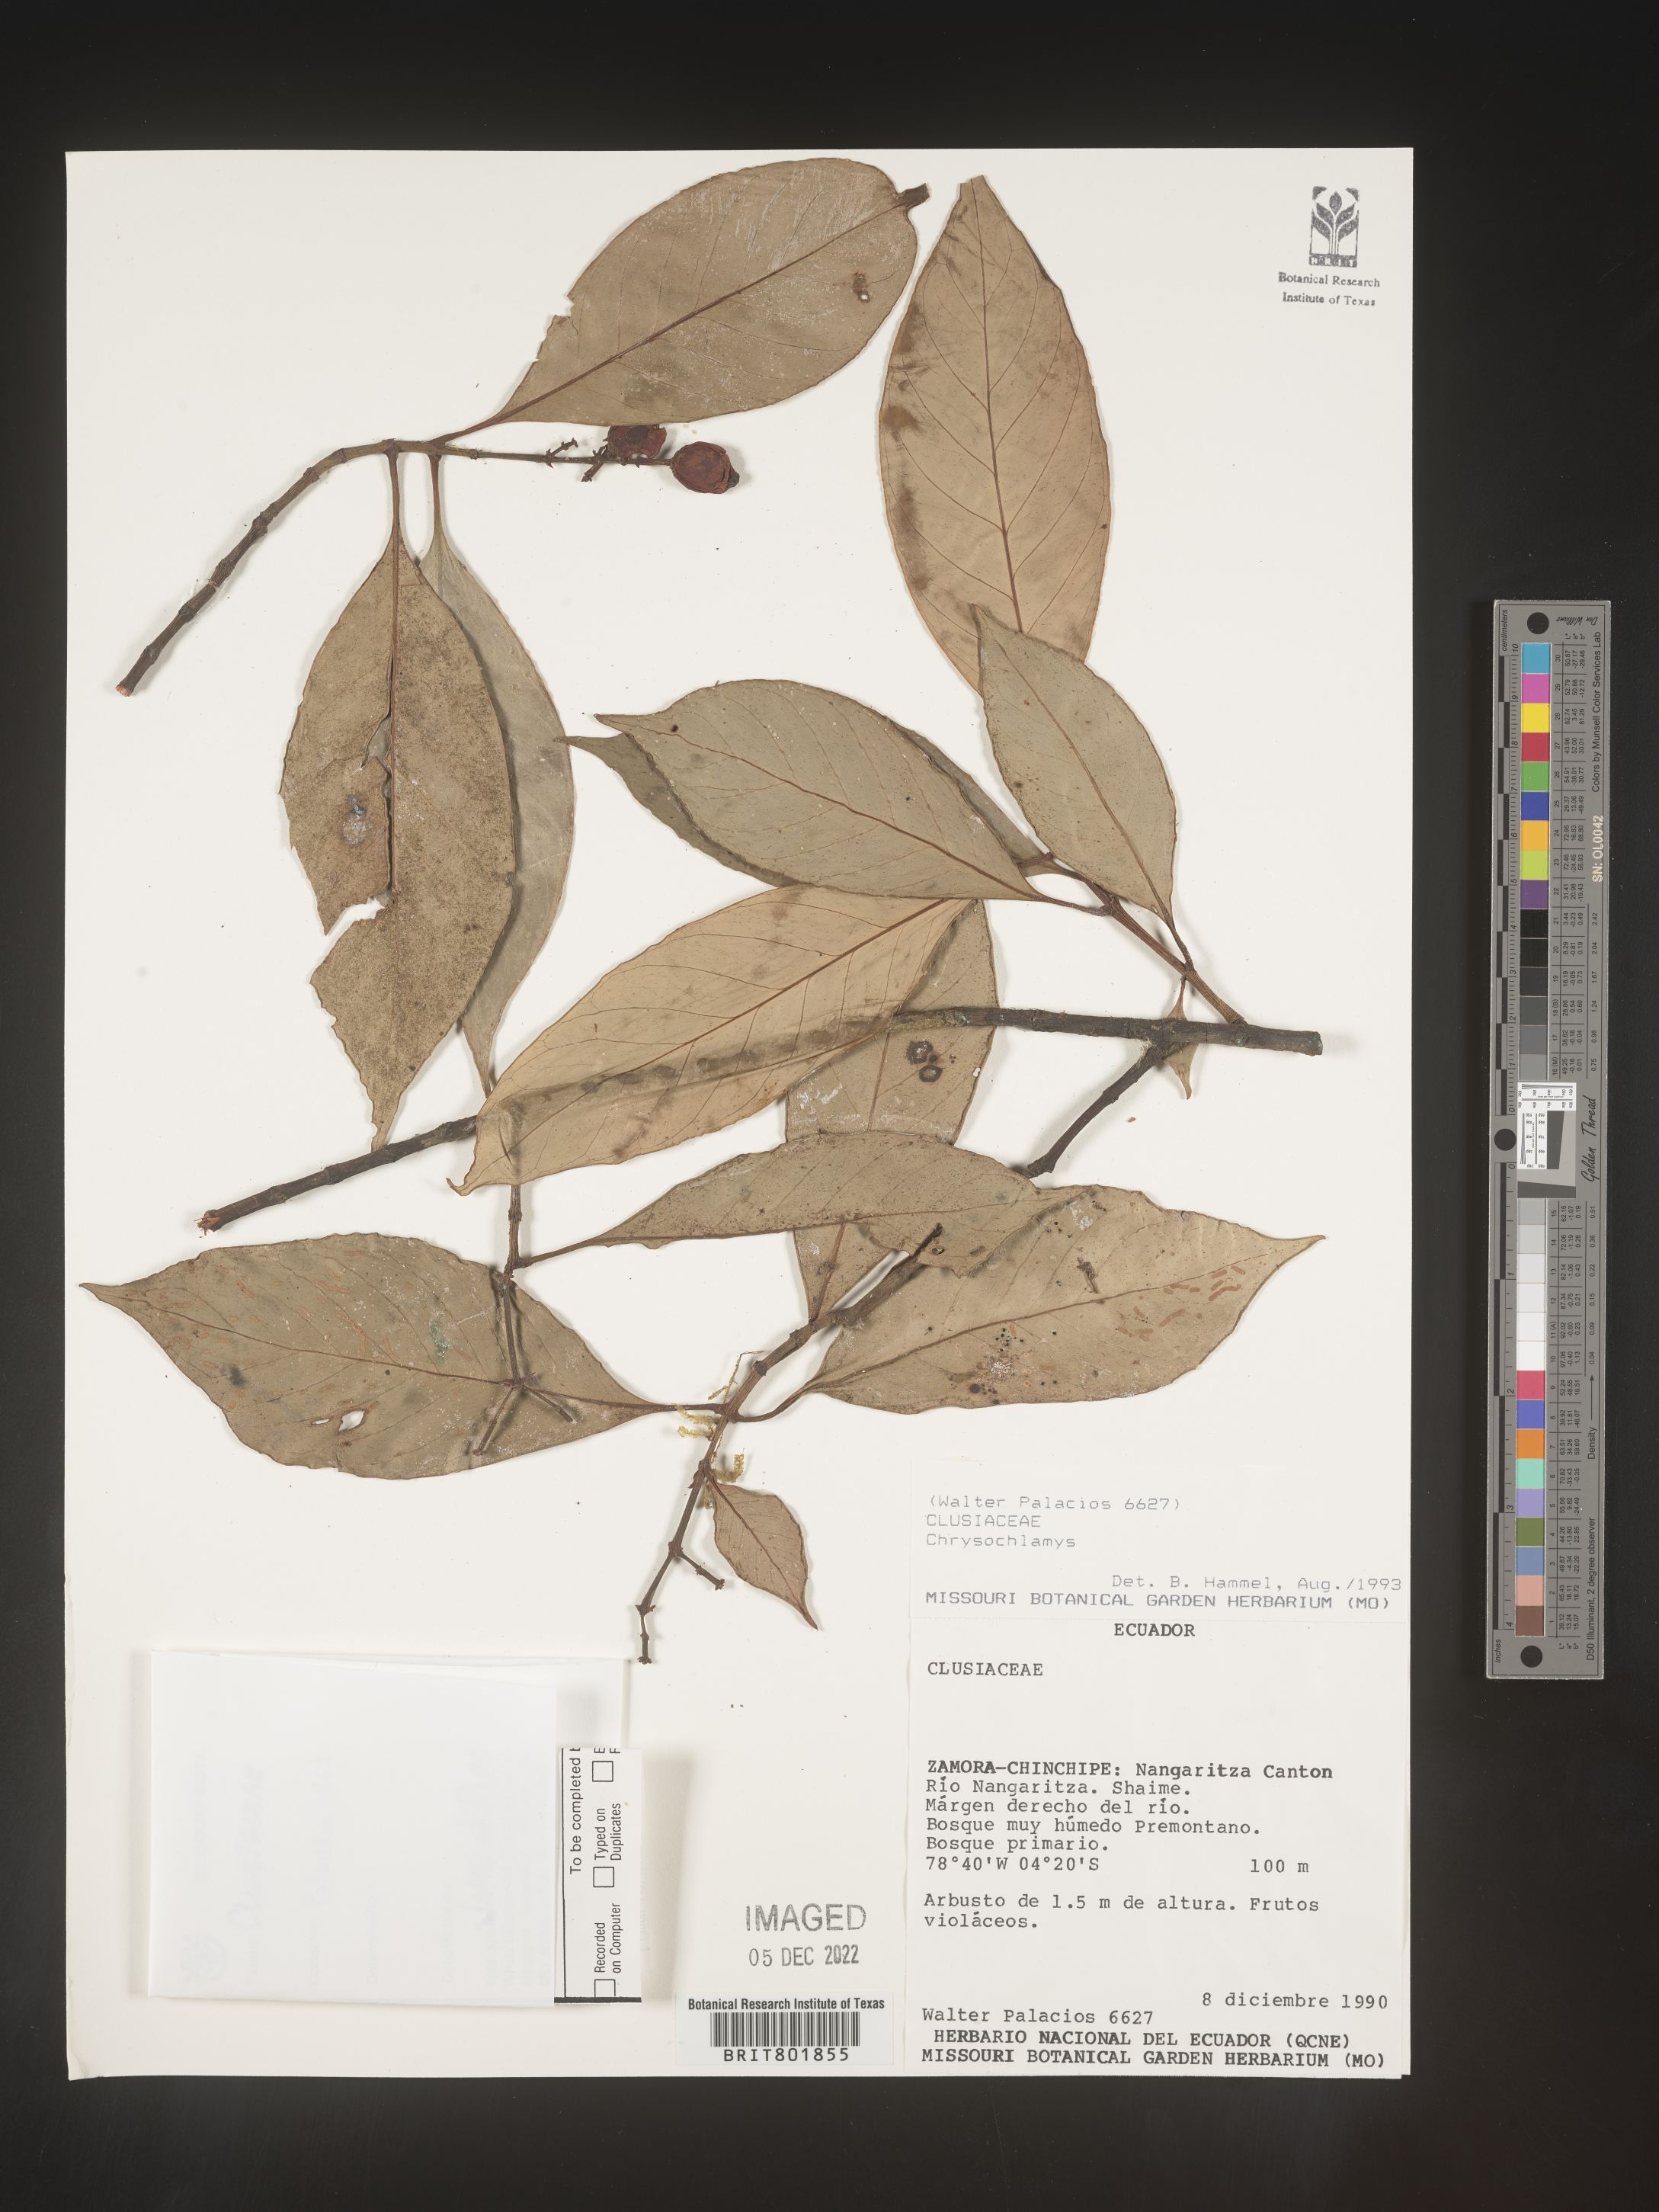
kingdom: Plantae
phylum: Tracheophyta
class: Magnoliopsida
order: Malpighiales
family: Clusiaceae
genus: Chrysochlamys
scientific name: Chrysochlamys
